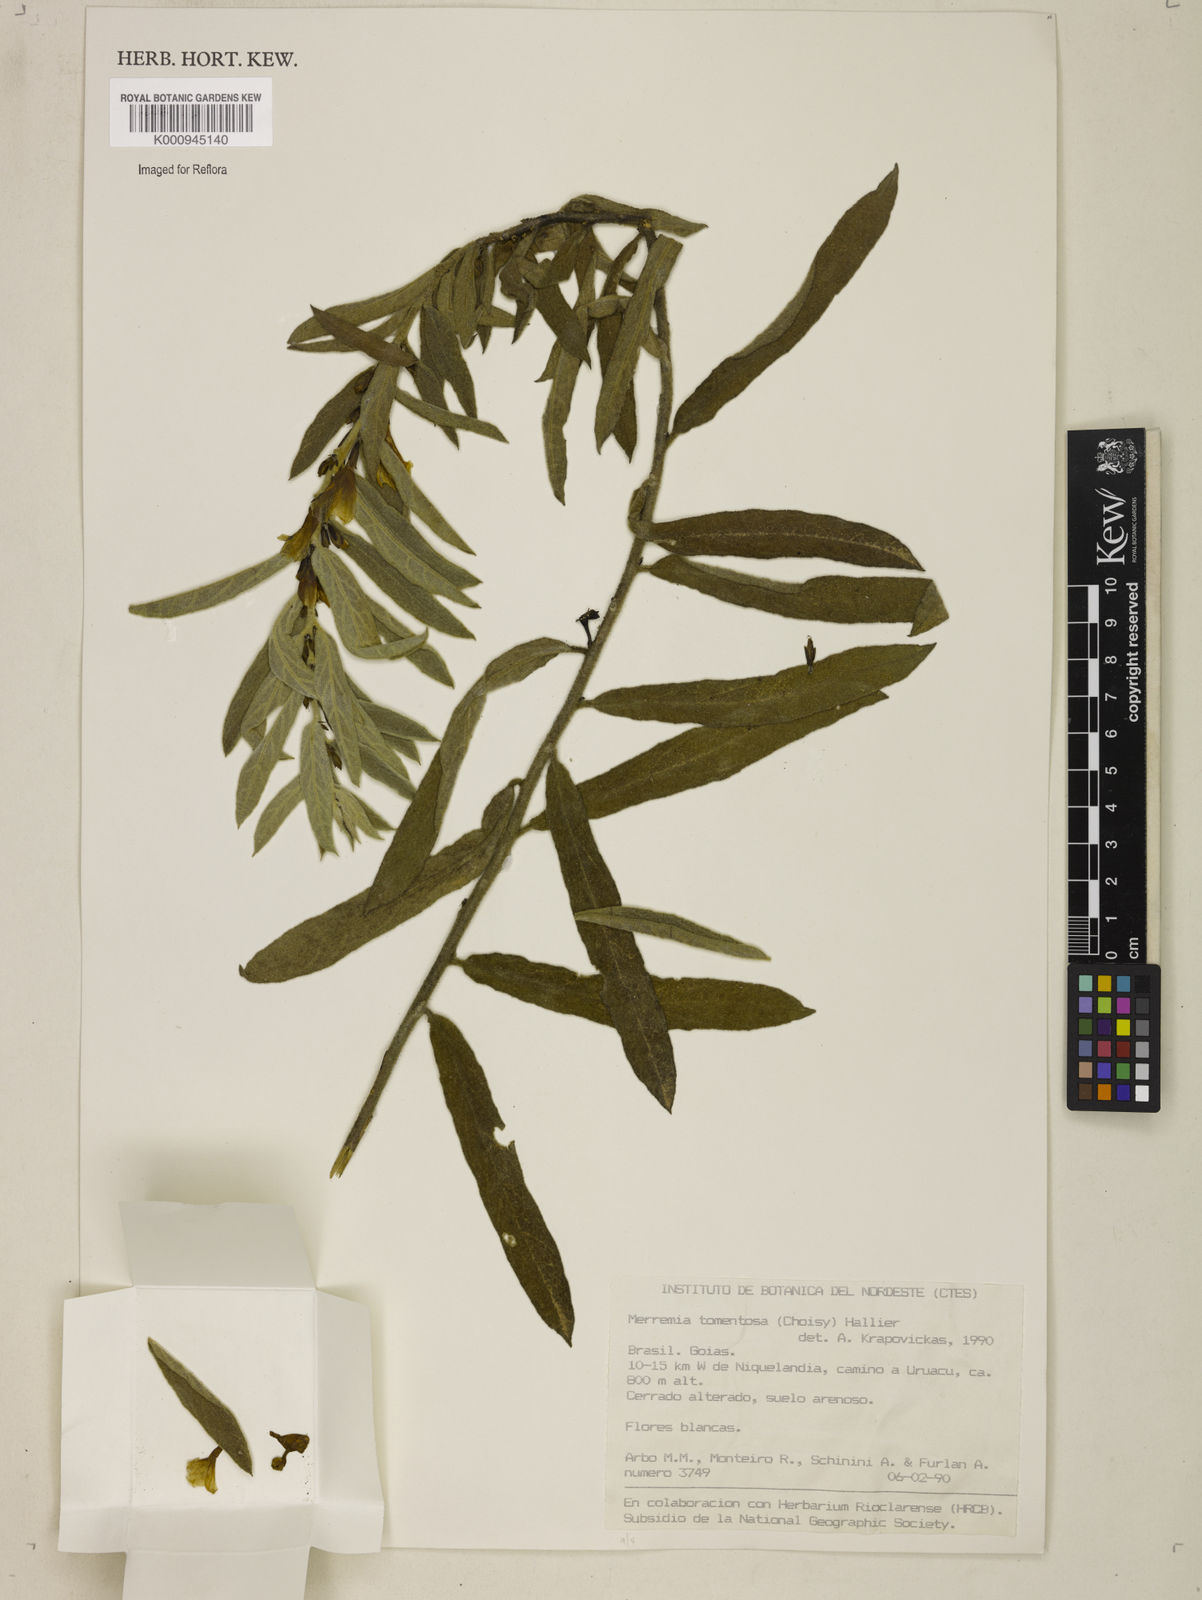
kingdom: Plantae
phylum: Tracheophyta
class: Magnoliopsida
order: Solanales
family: Convolvulaceae
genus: Distimake
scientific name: Distimake tomentosus
